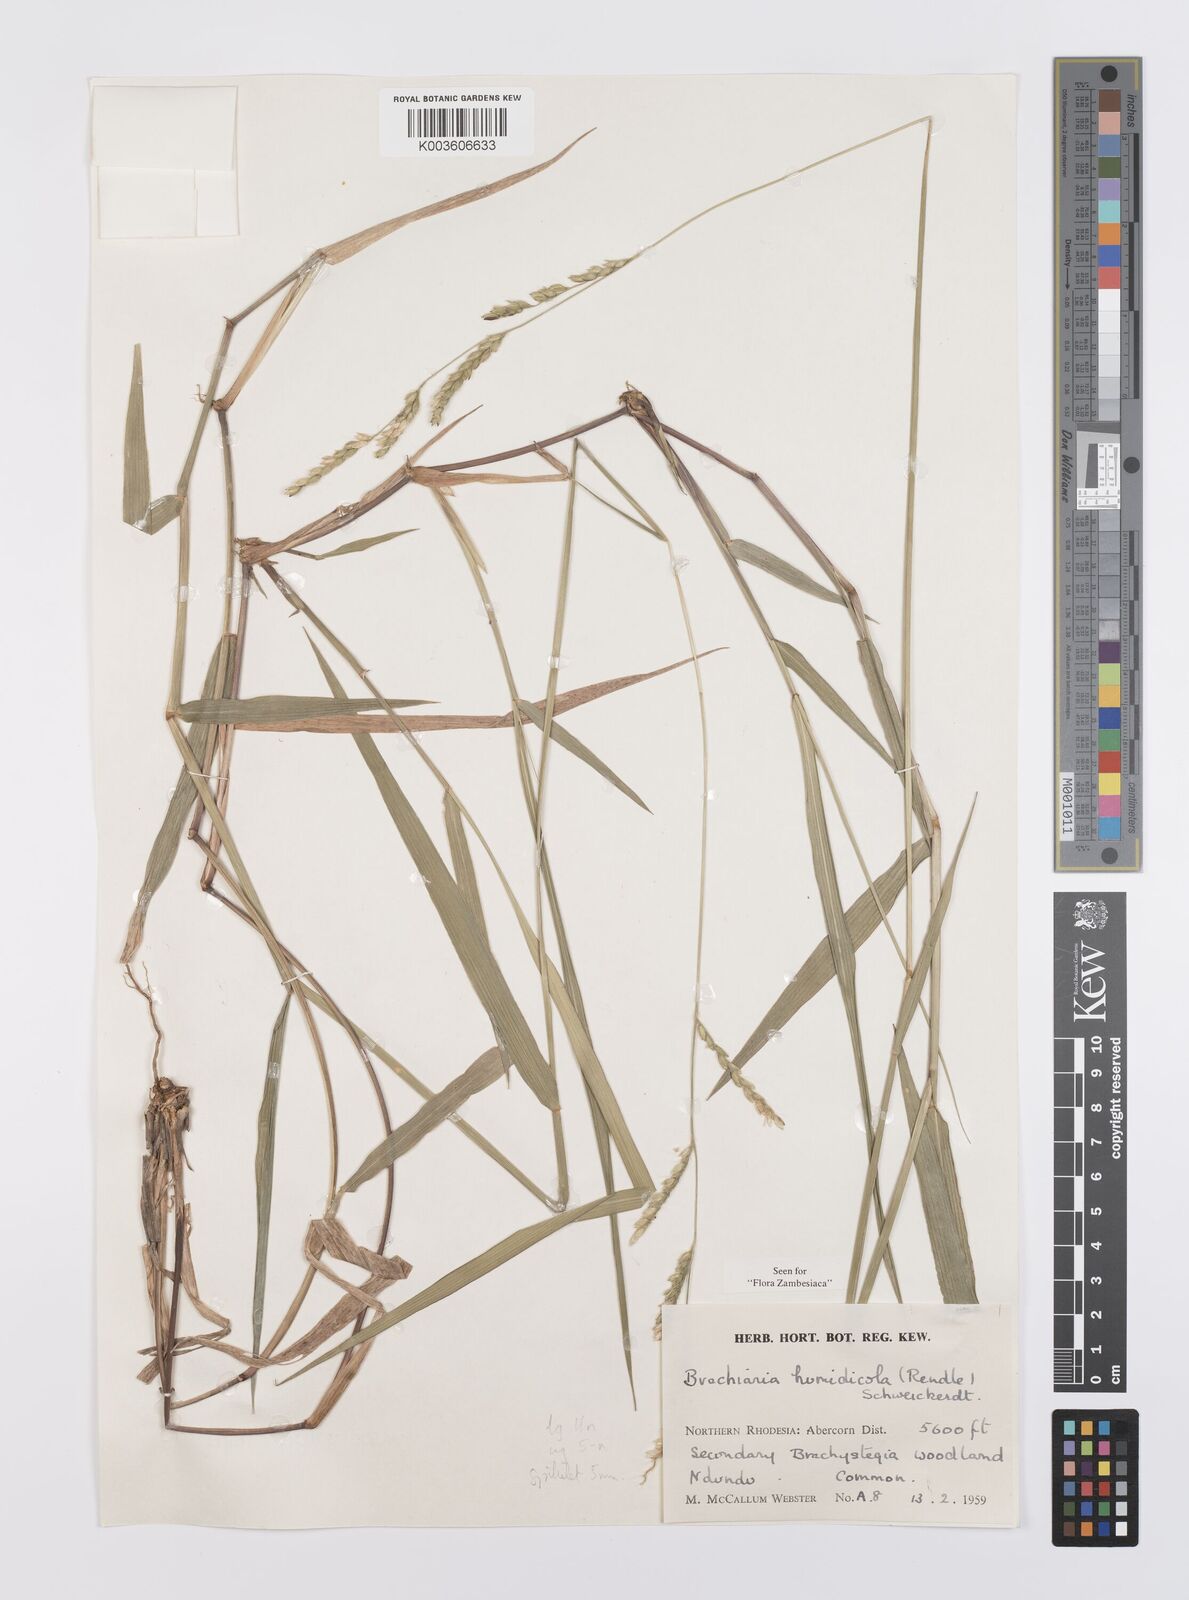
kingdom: Plantae
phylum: Tracheophyta
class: Liliopsida
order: Poales
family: Poaceae
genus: Urochloa
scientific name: Urochloa dictyoneura
